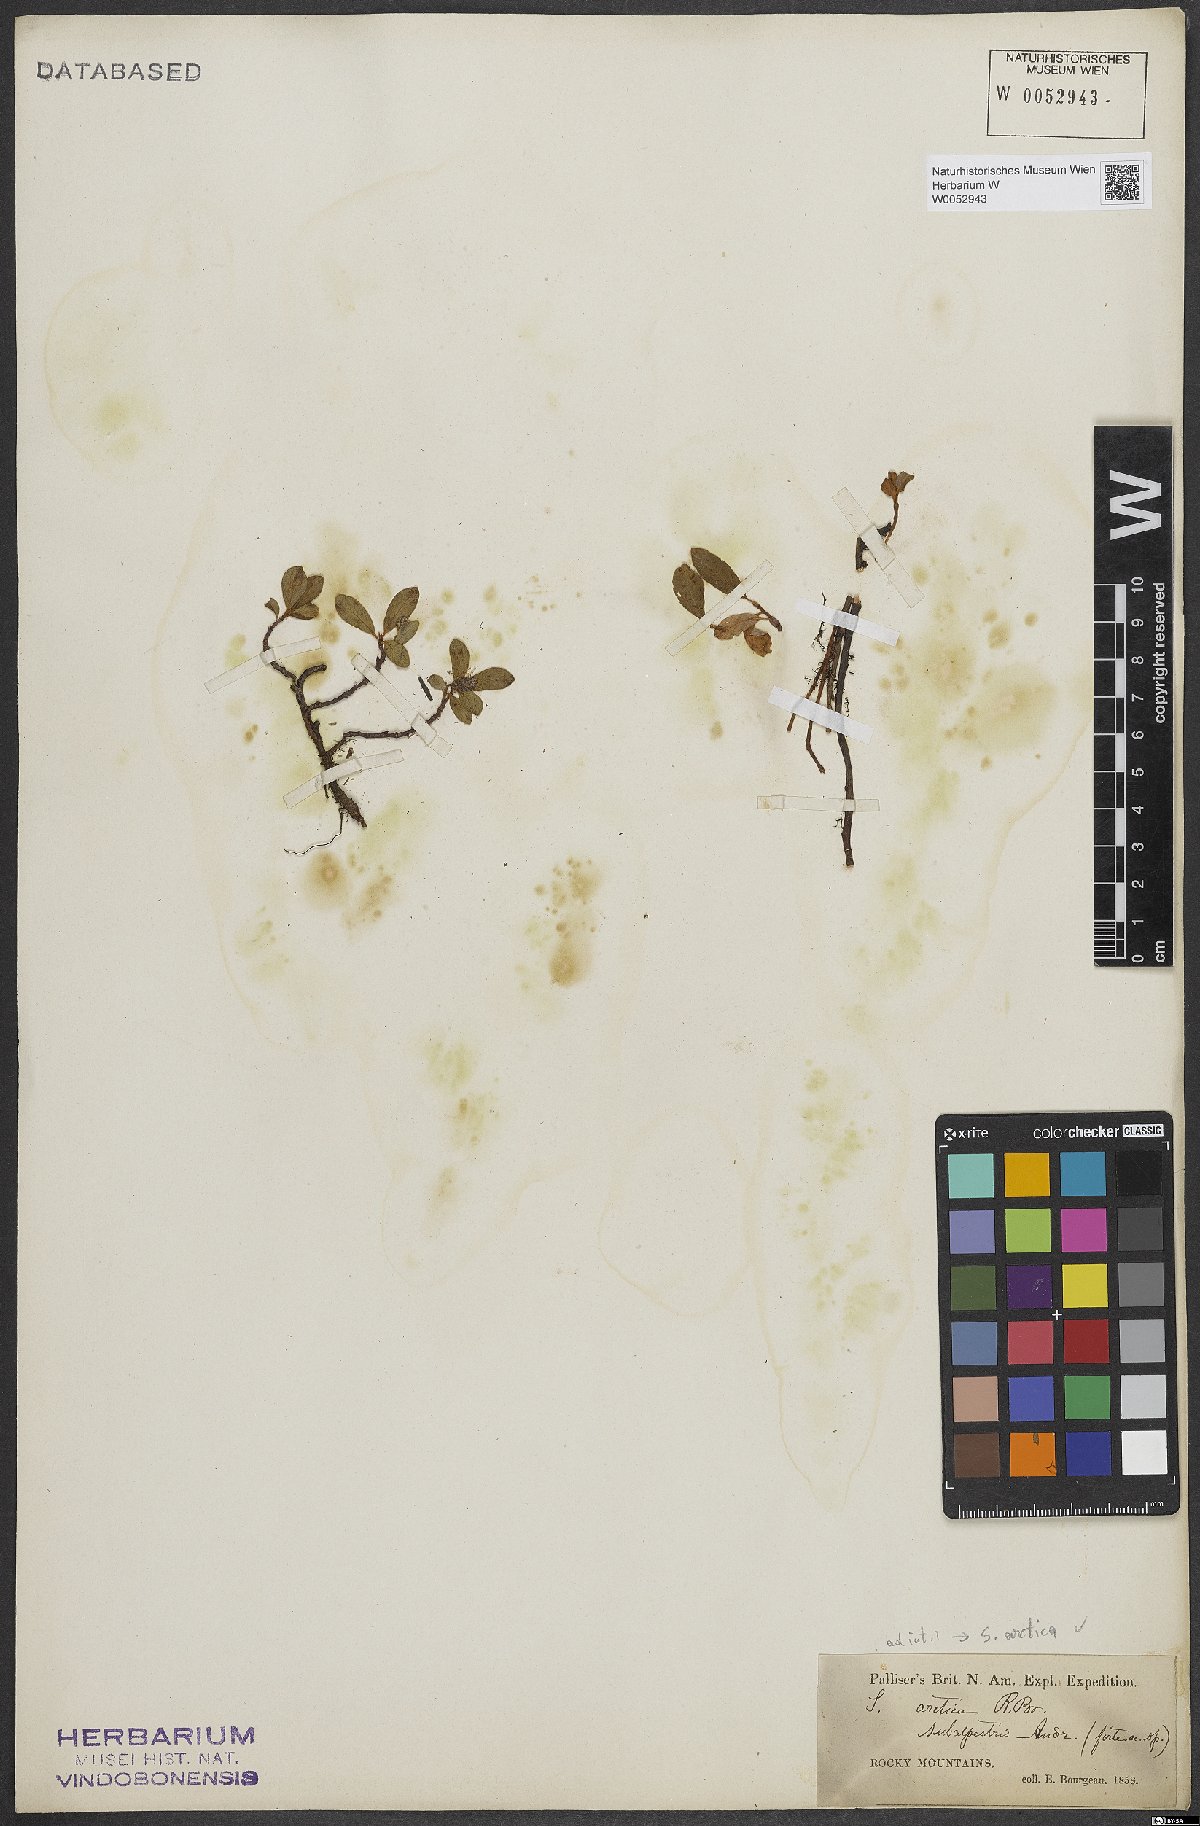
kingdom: Plantae
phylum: Tracheophyta
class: Magnoliopsida
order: Malpighiales
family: Salicaceae
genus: Salix
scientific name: Salix arctica
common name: Arctic willow
